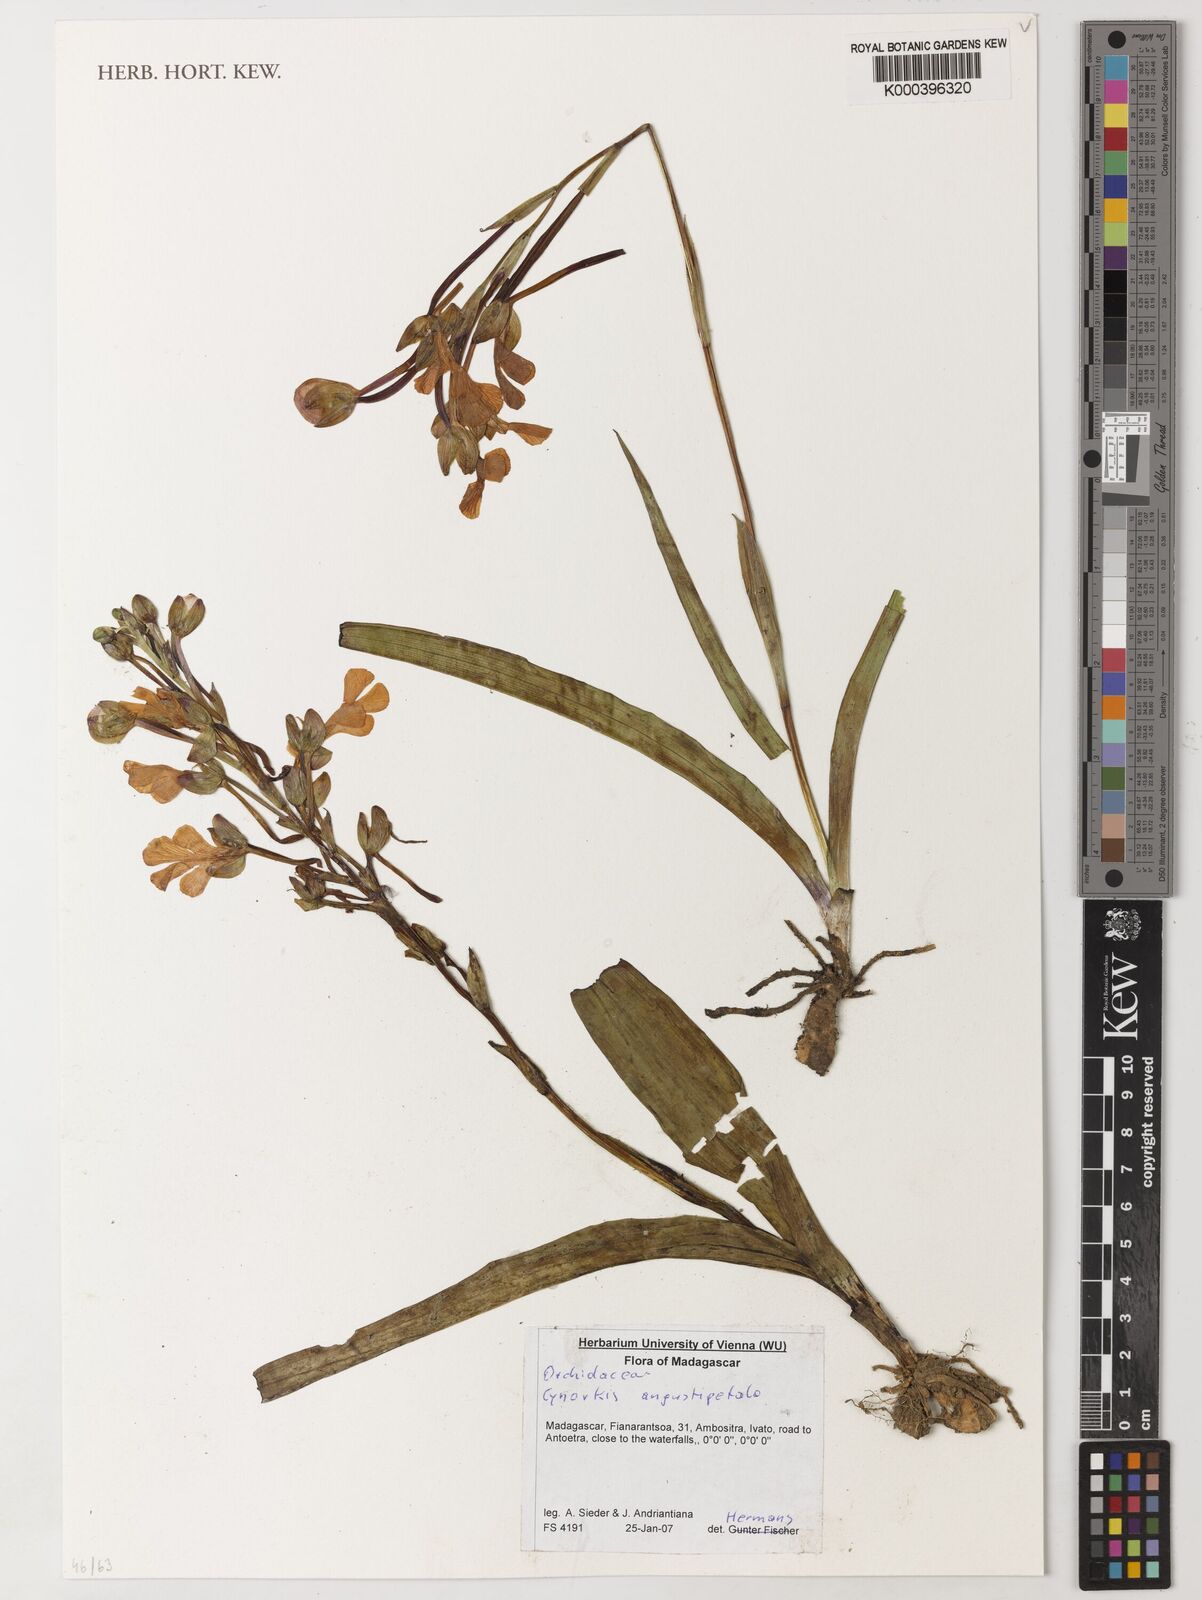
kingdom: Plantae
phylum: Tracheophyta
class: Liliopsida
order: Asparagales
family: Orchidaceae
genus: Cynorkis
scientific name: Cynorkis angustipetala
